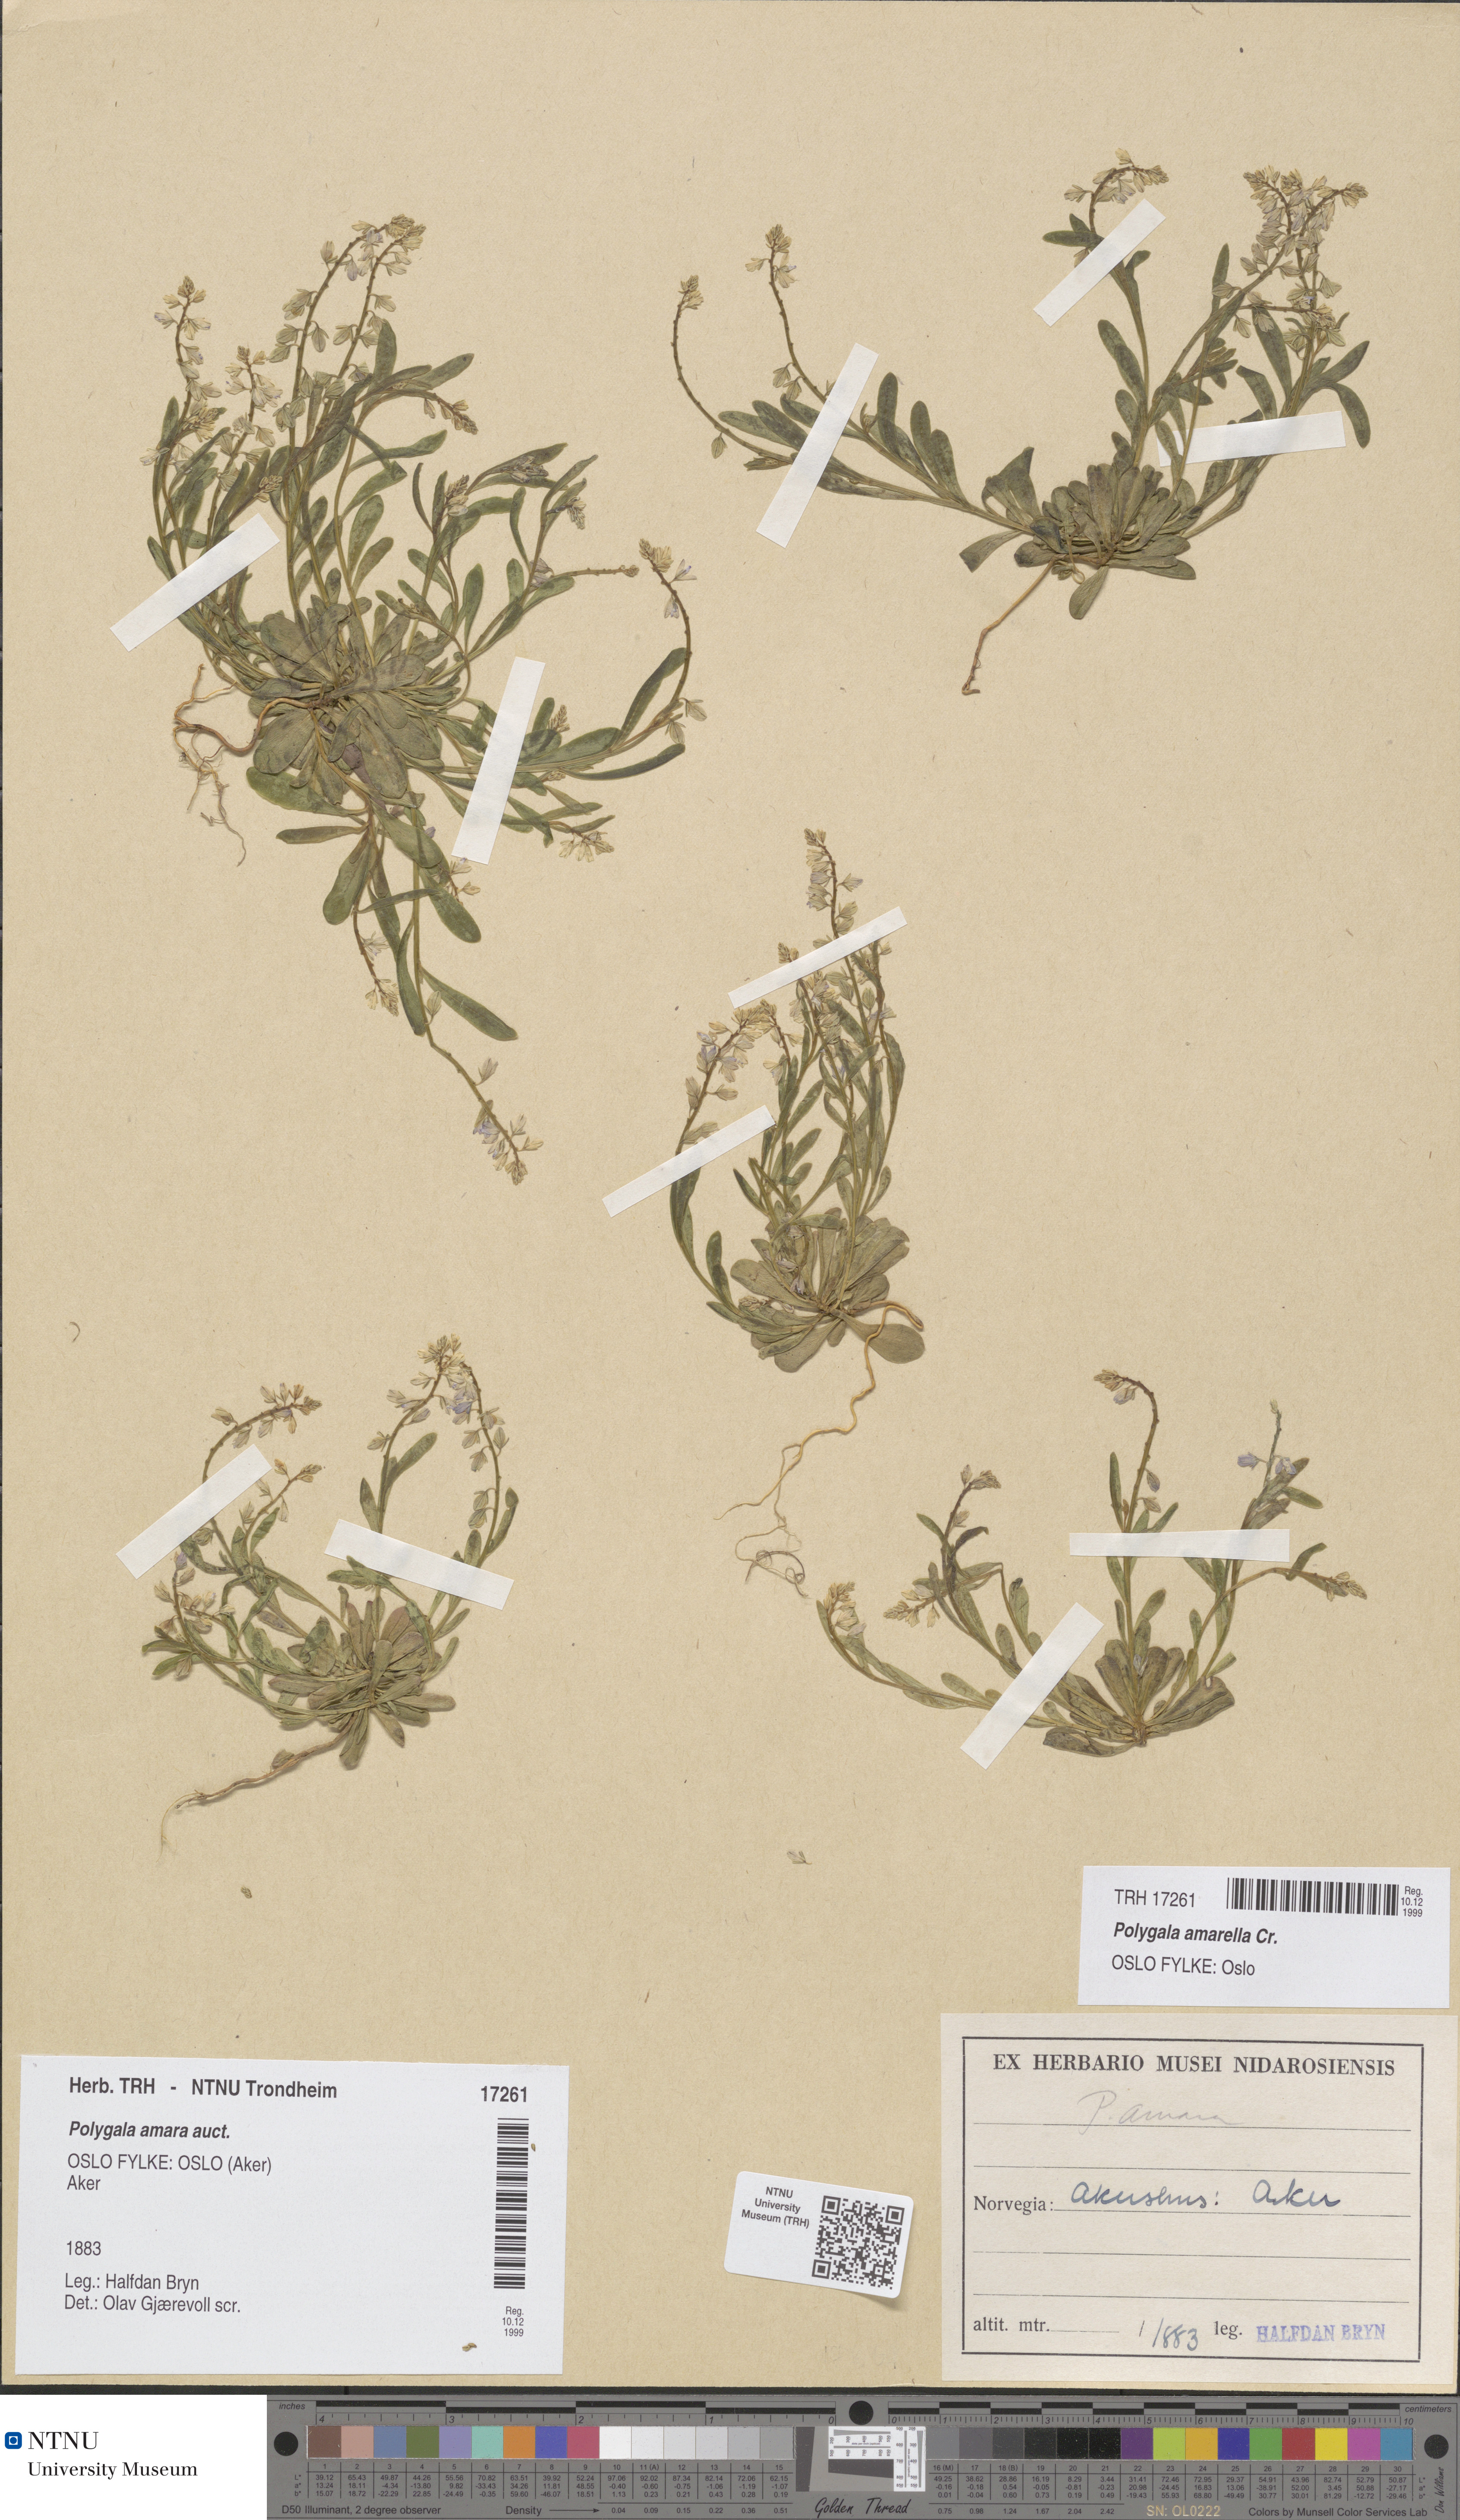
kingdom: Plantae
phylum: Tracheophyta
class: Magnoliopsida
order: Fabales
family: Polygalaceae
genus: Polygala
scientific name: Polygala amarella
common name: Dwarf milkwort
